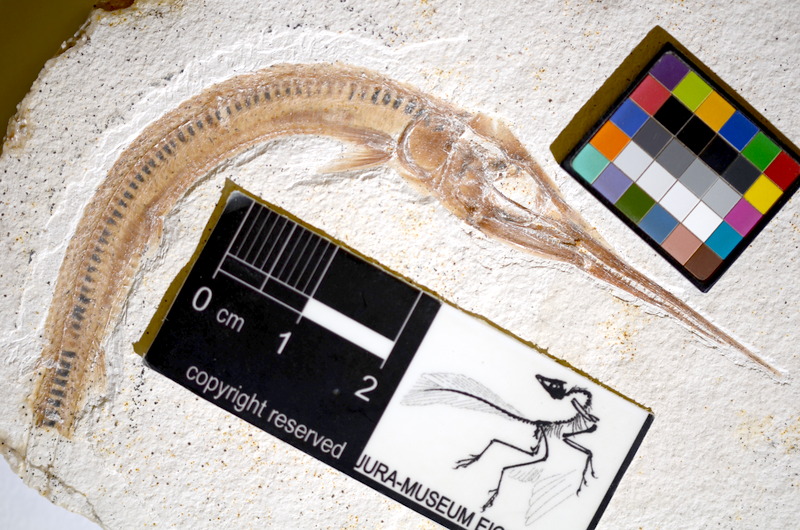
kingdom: Animalia
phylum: Chordata
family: Aspidorhynchidae
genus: Belonostomus
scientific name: Belonostomus kochii
